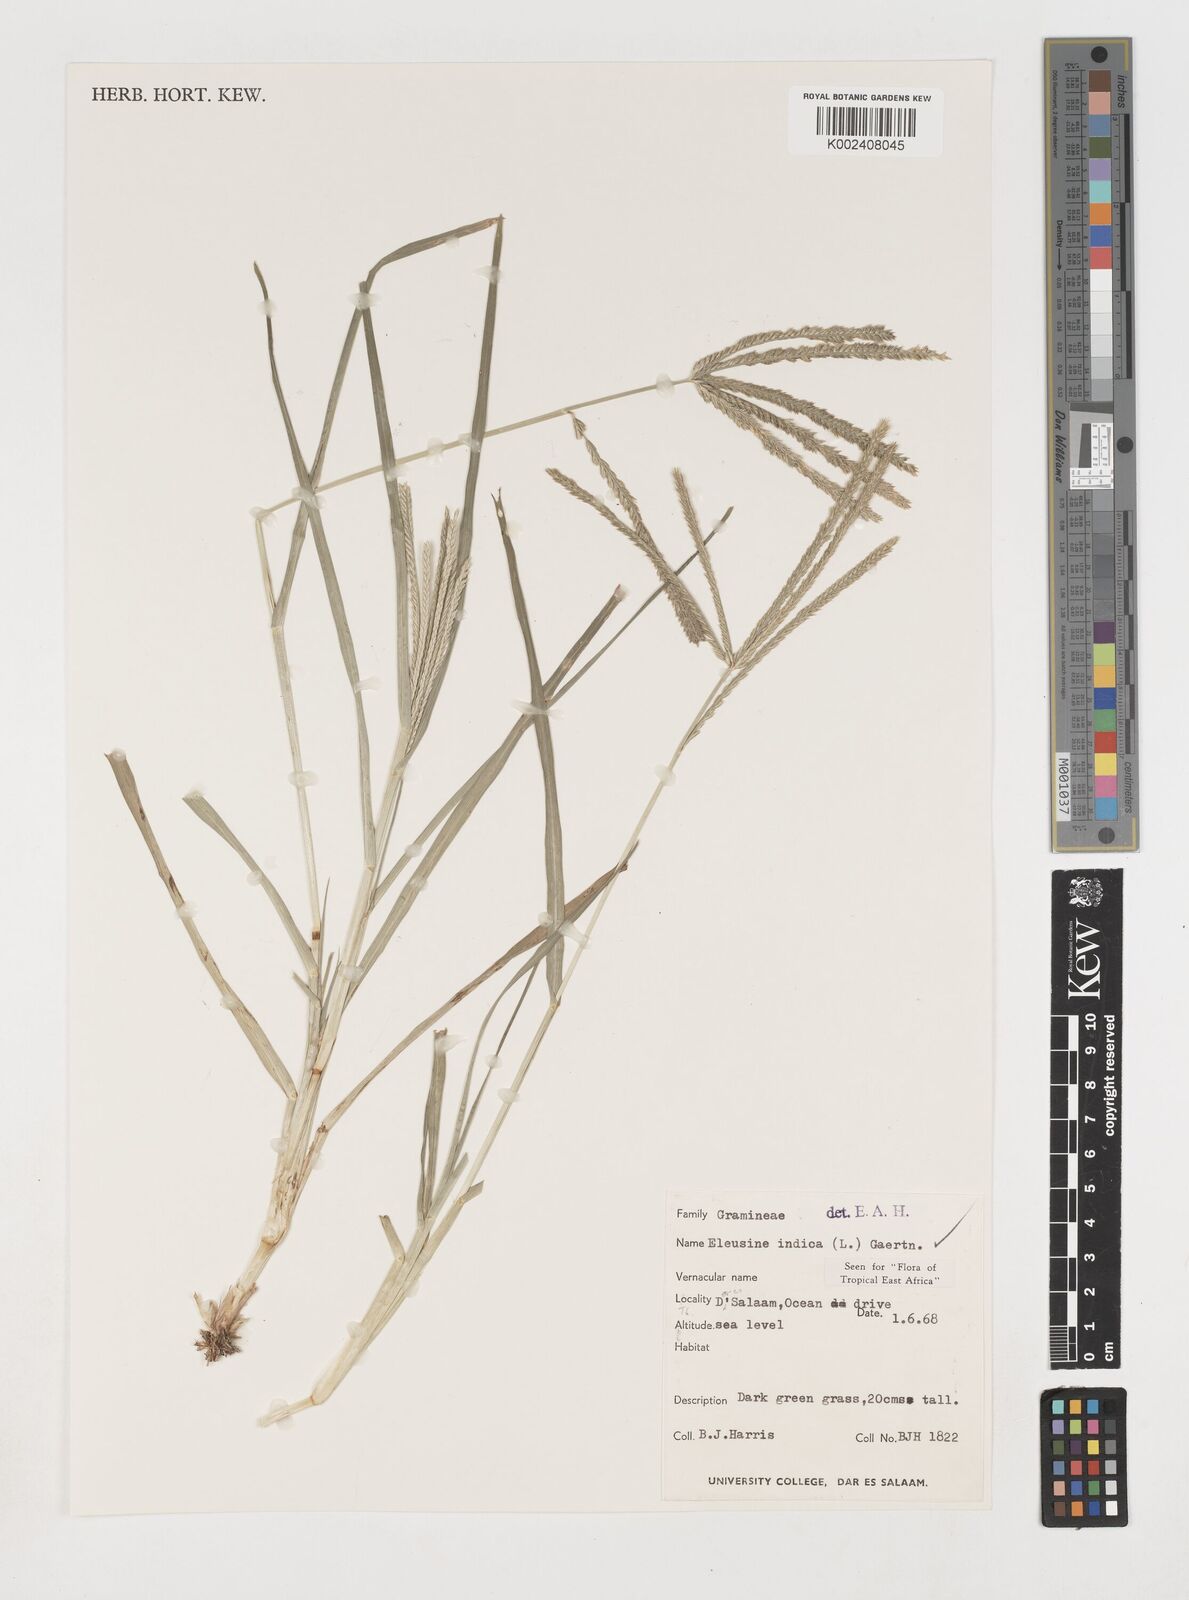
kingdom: Plantae
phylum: Tracheophyta
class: Liliopsida
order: Poales
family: Poaceae
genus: Eleusine
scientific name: Eleusine indica
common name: Yard-grass
